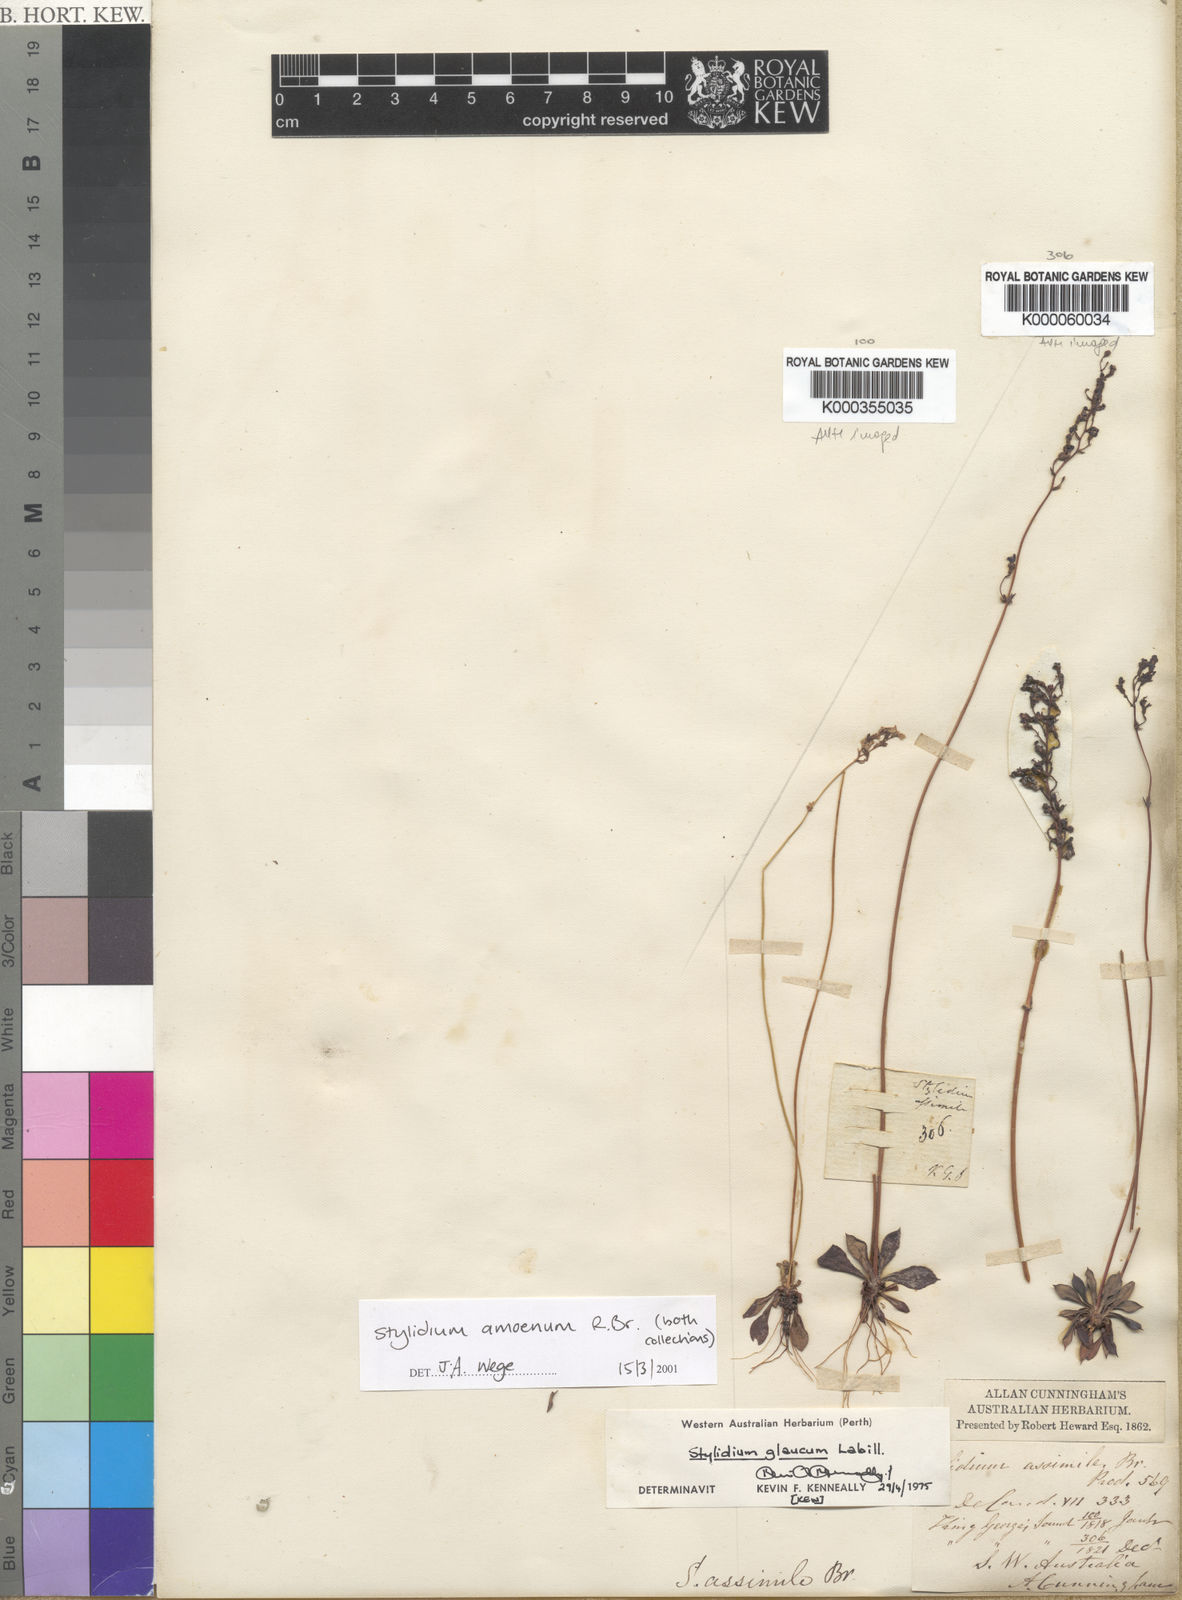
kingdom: Plantae
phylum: Tracheophyta
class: Magnoliopsida
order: Asterales
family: Stylidiaceae
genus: Stylidium
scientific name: Stylidium amoenum
